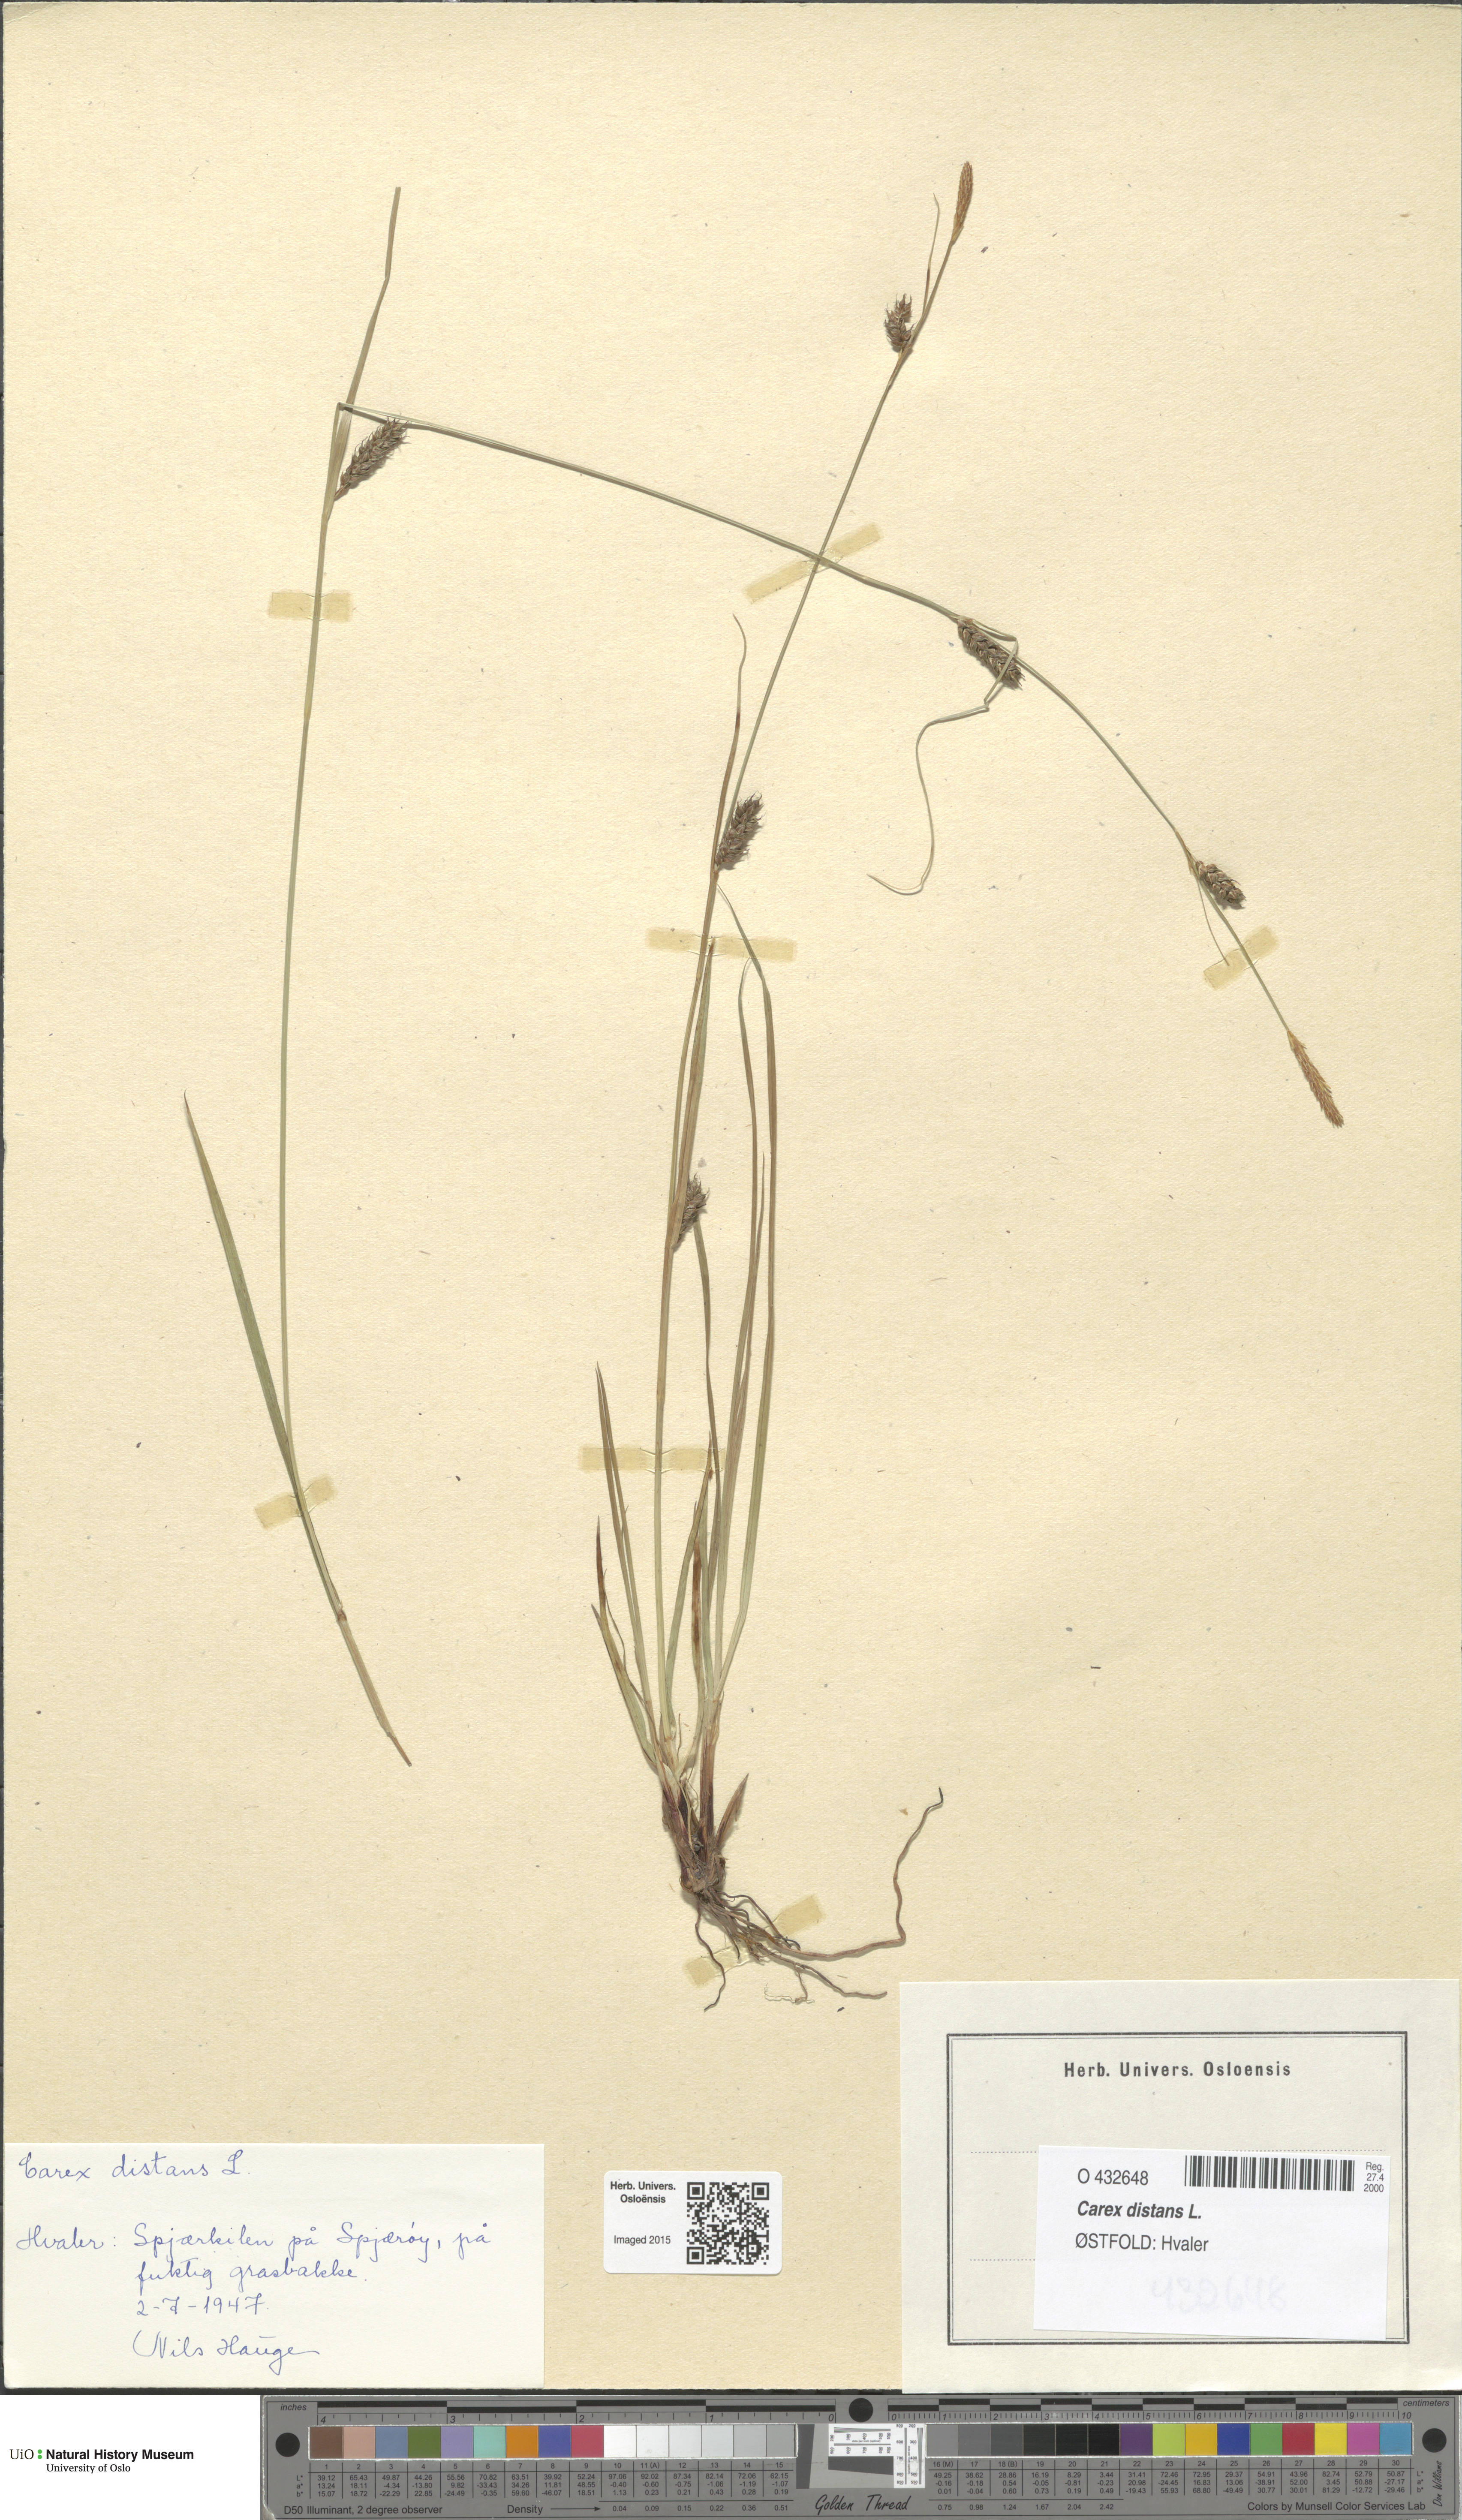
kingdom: Plantae
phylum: Tracheophyta
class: Liliopsida
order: Poales
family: Cyperaceae
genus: Carex
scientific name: Carex distans
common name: Distant sedge
